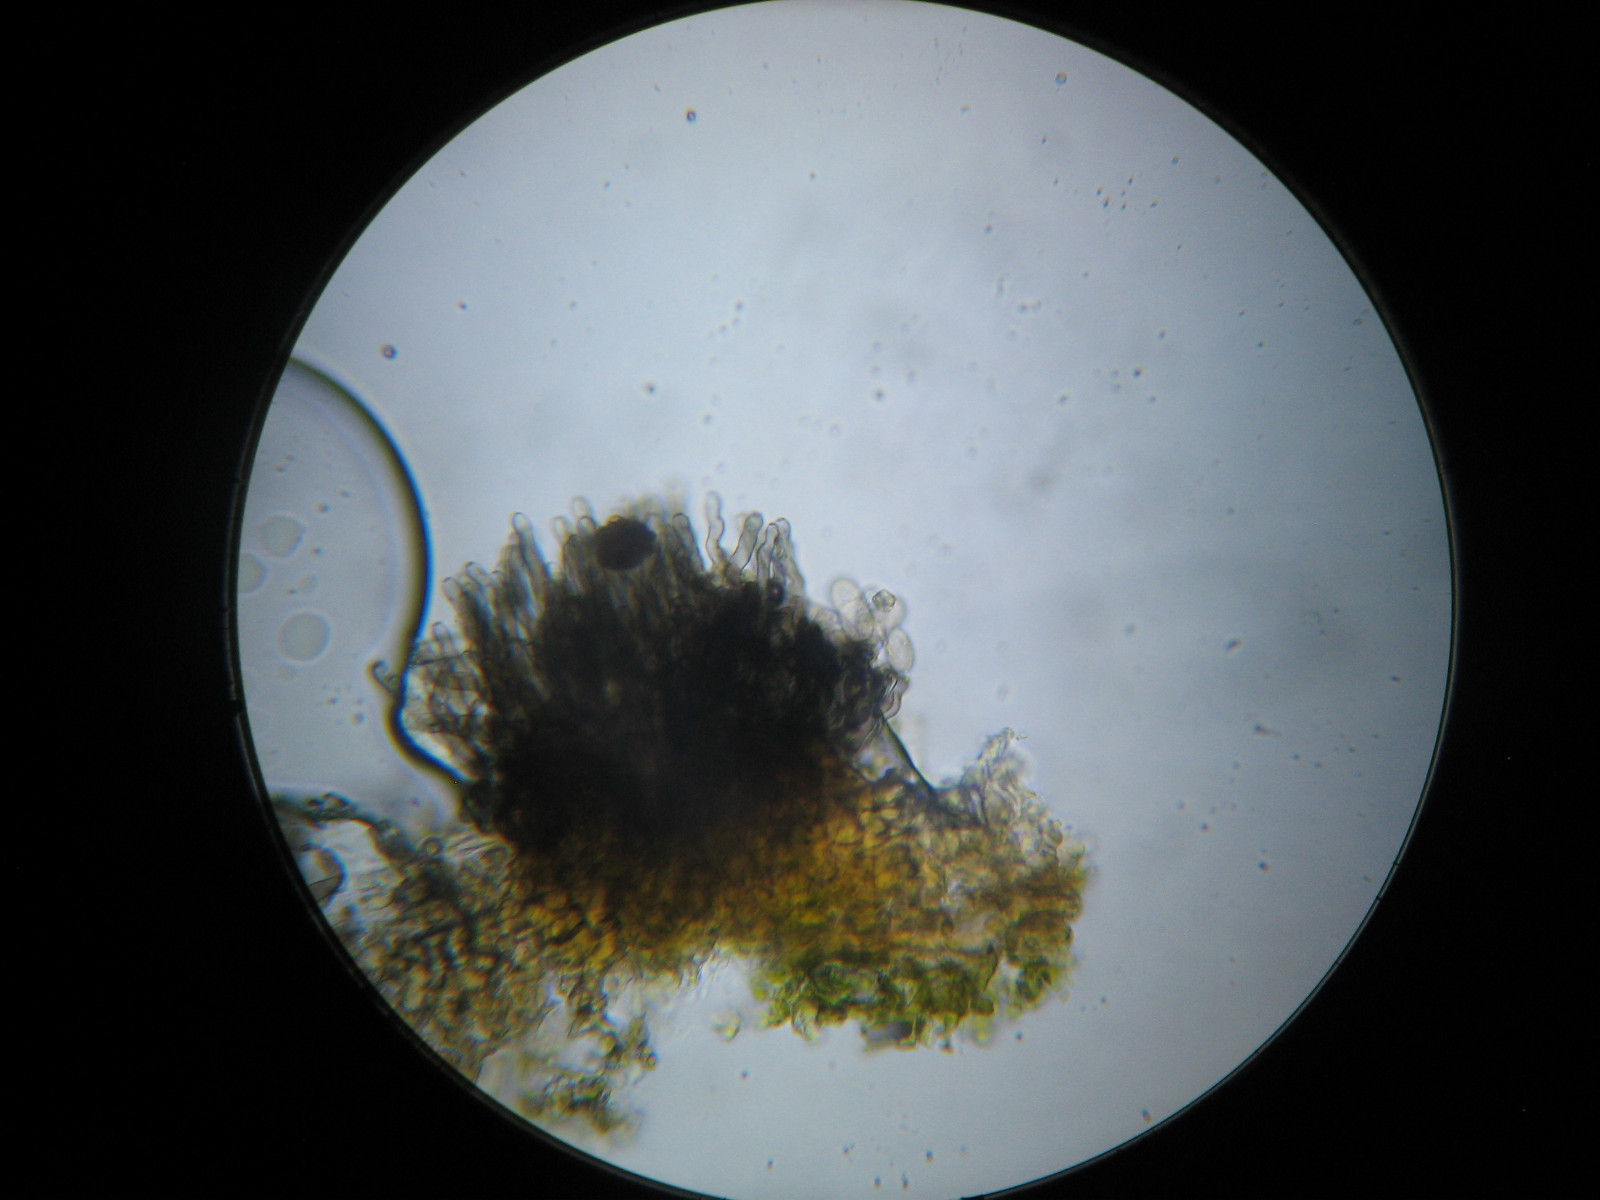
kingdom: Fungi
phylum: Ascomycota
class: Dothideomycetes
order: Mycosphaerellales
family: Mycosphaerellaceae
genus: Graminopassalora
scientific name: Graminopassalora graminis
